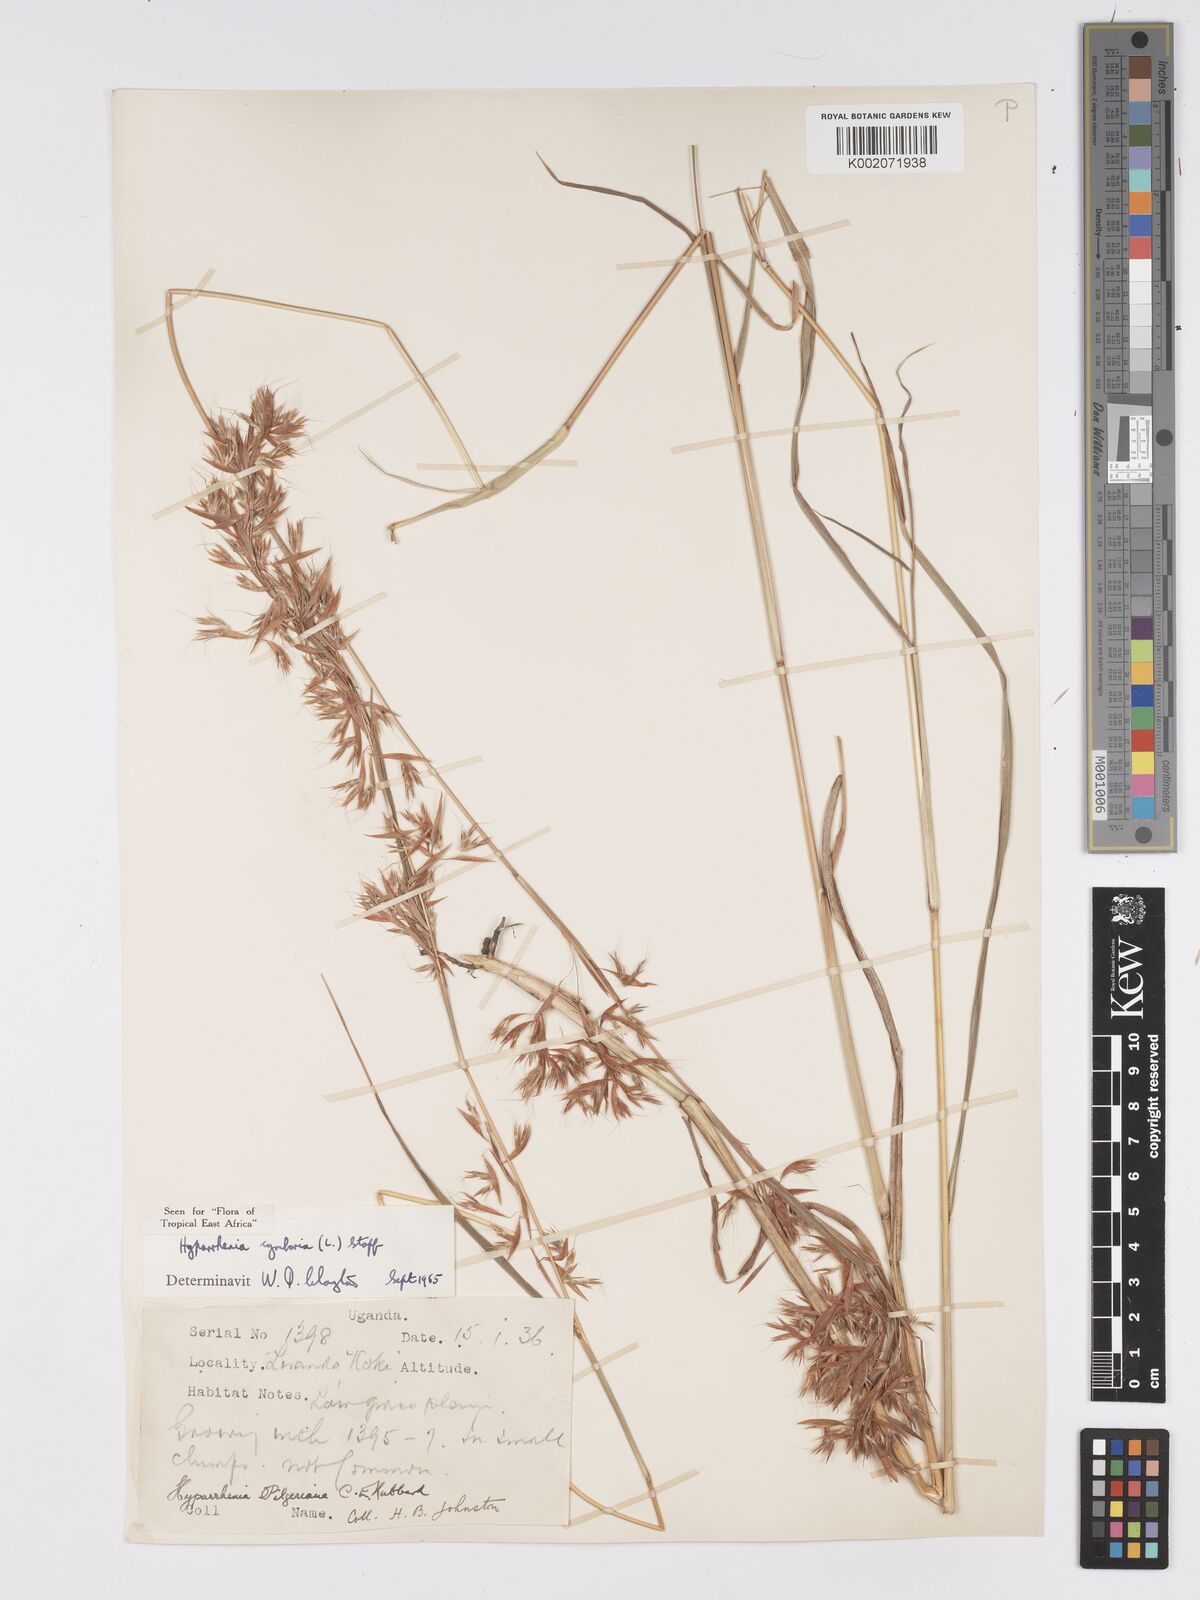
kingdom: Plantae
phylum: Tracheophyta
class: Liliopsida
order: Poales
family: Poaceae
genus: Hyparrhenia
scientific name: Hyparrhenia cymbaria
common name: Boat thatching grass
